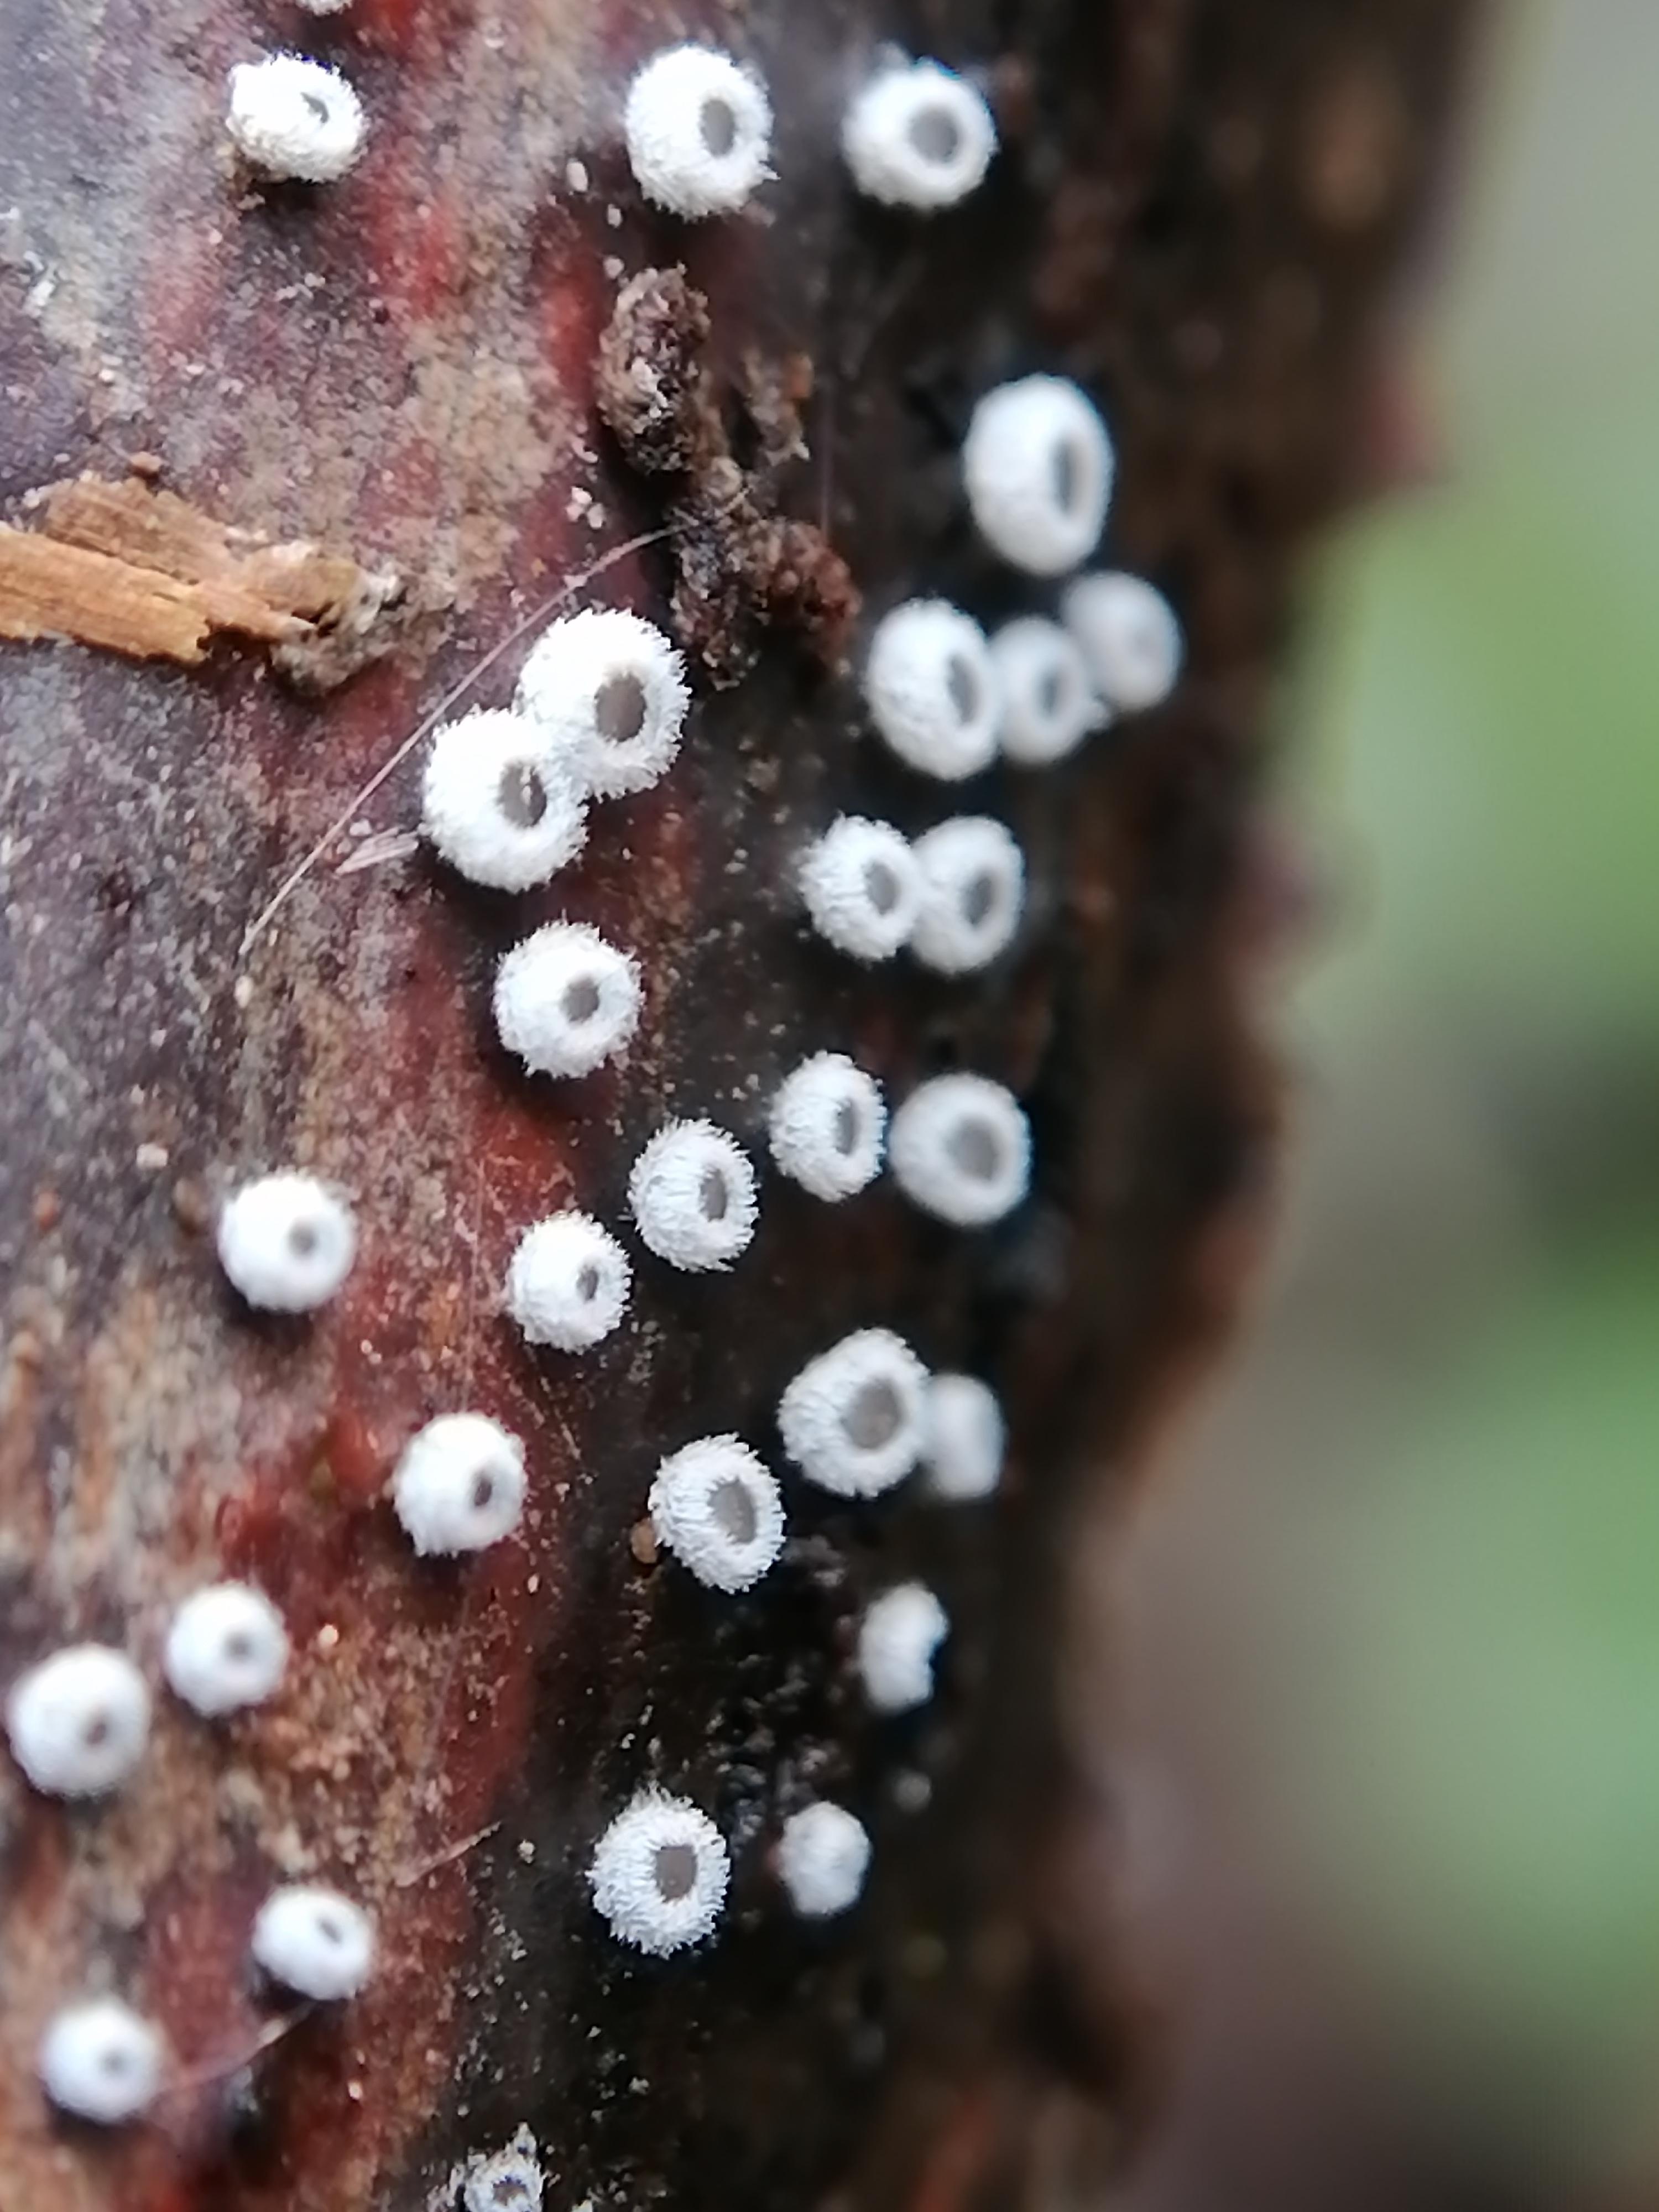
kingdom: Fungi
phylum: Basidiomycota
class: Agaricomycetes
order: Agaricales
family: Niaceae
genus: Lachnella
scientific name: Lachnella alboviolascens
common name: grå frynserede
